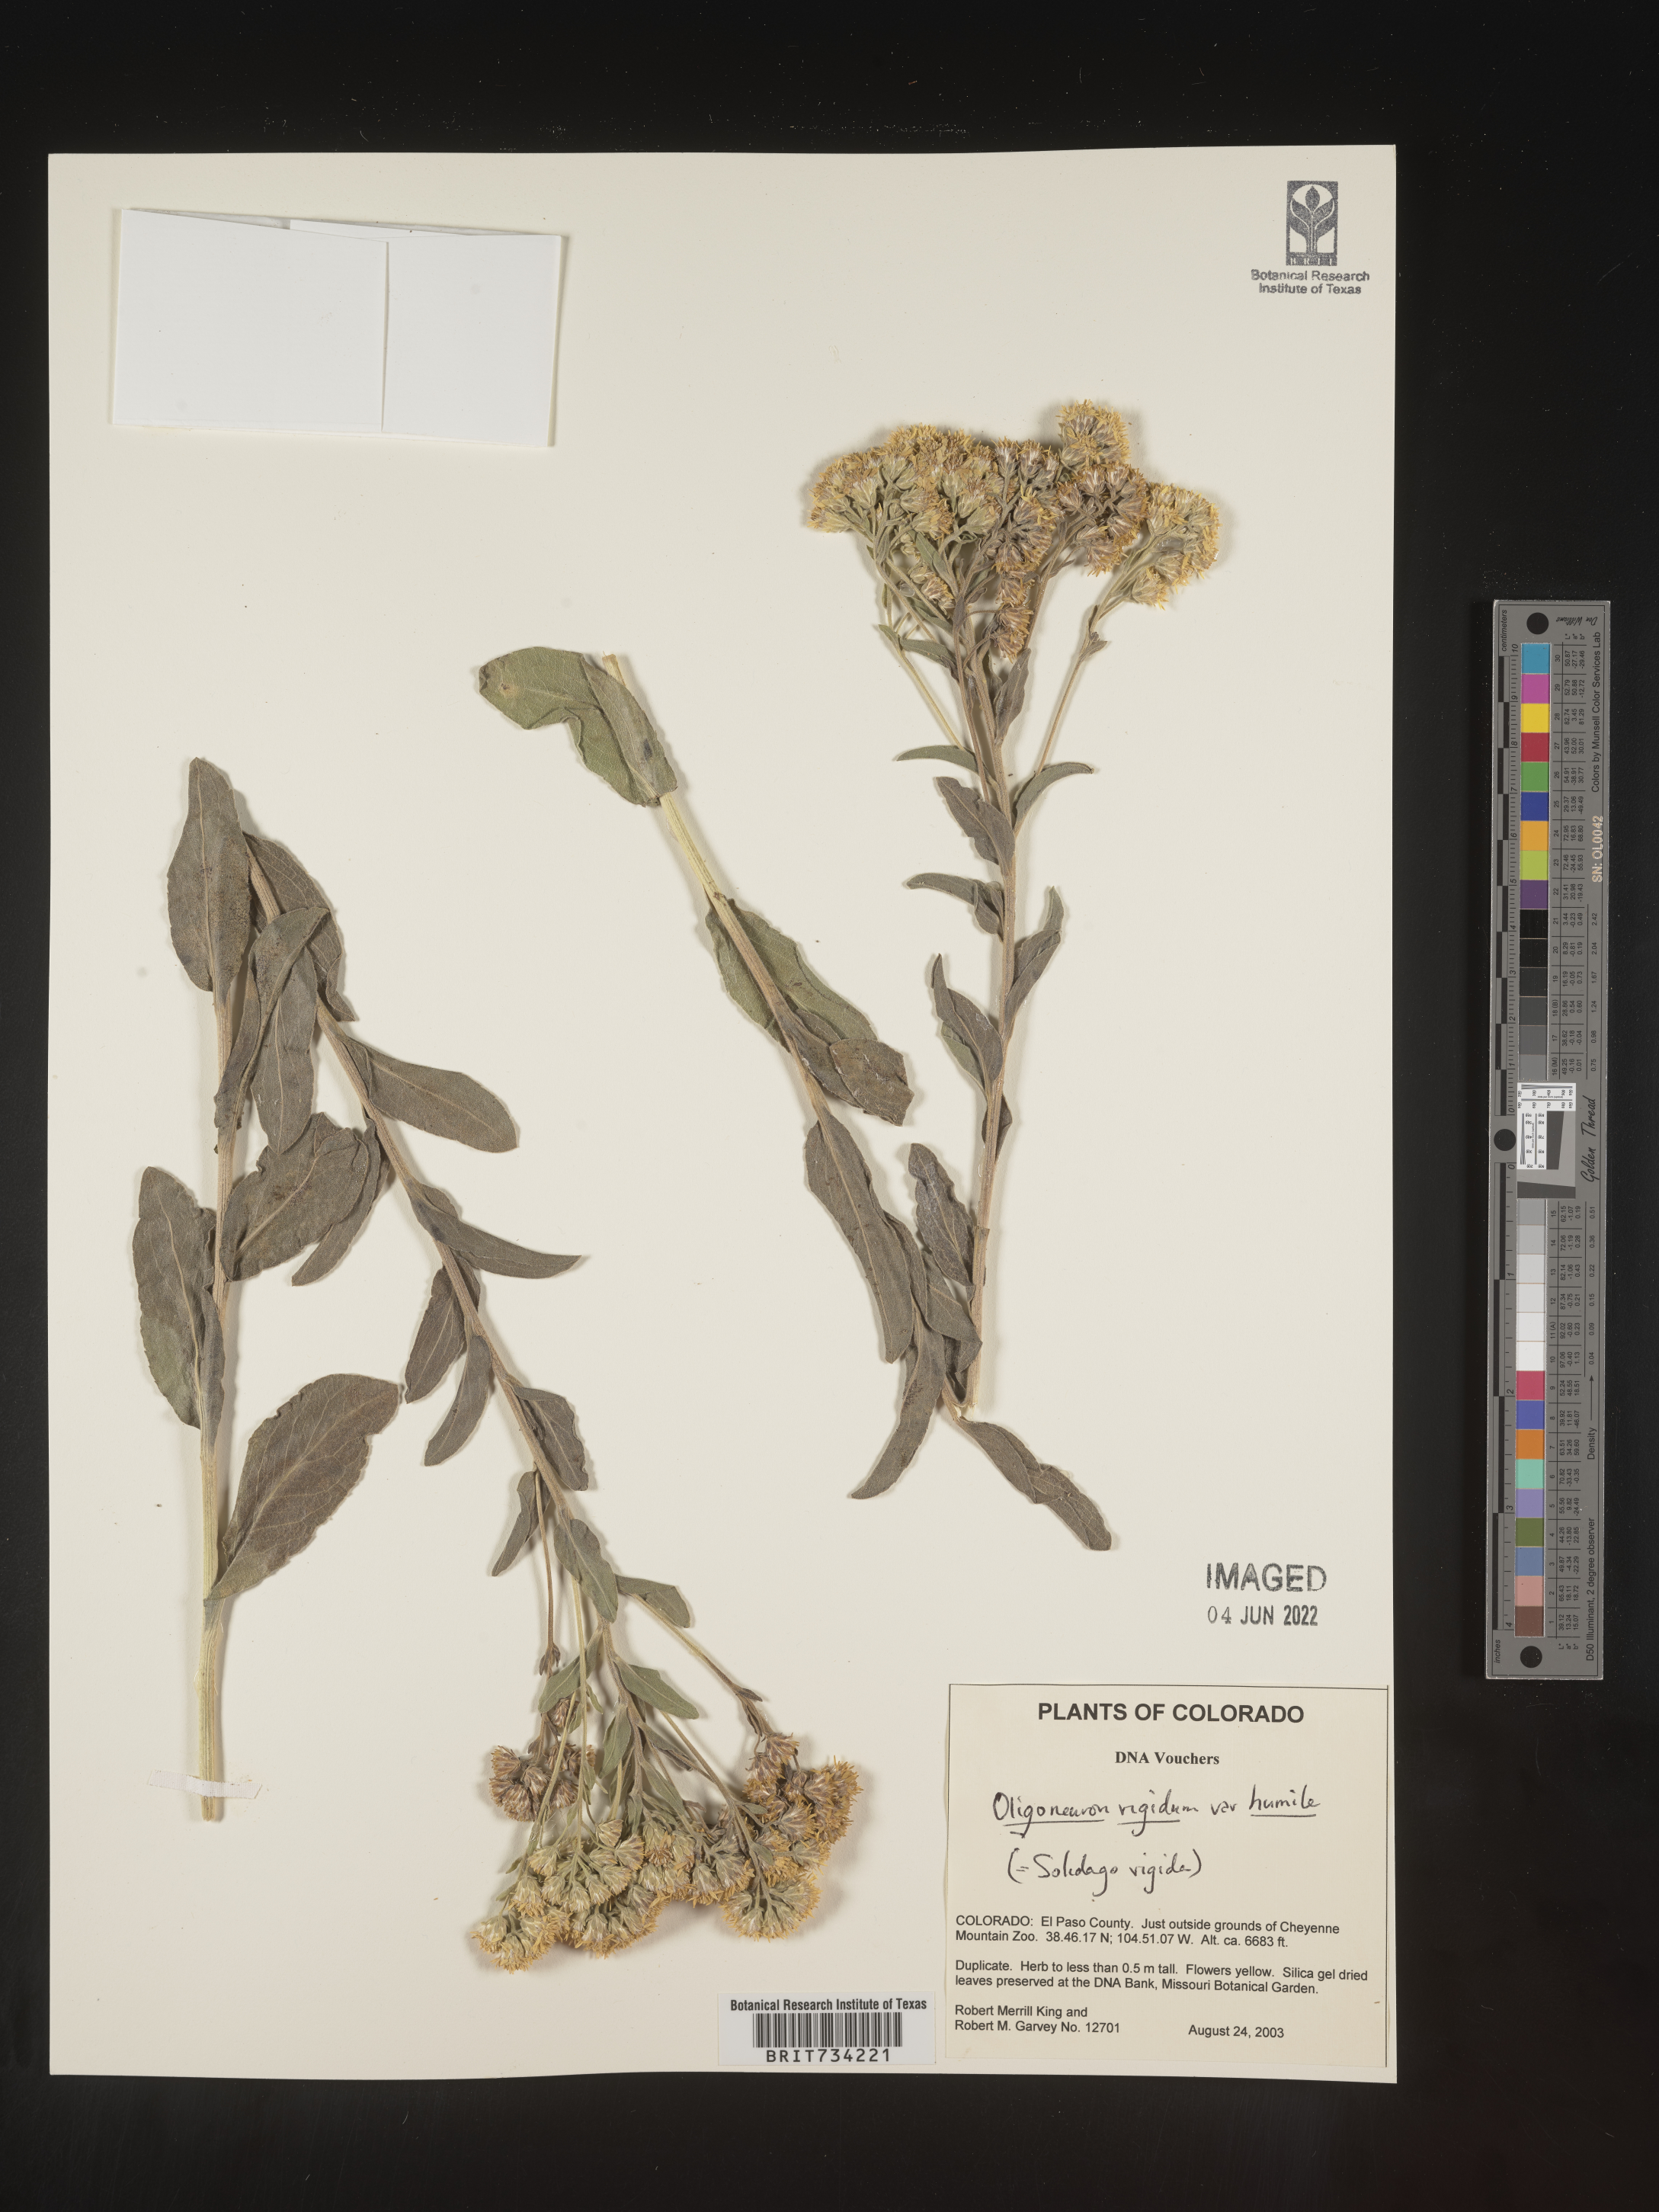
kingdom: Plantae
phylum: Tracheophyta
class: Magnoliopsida
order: Asterales
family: Asteraceae
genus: Solidago
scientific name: Solidago rigida
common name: Rigid goldenrod
